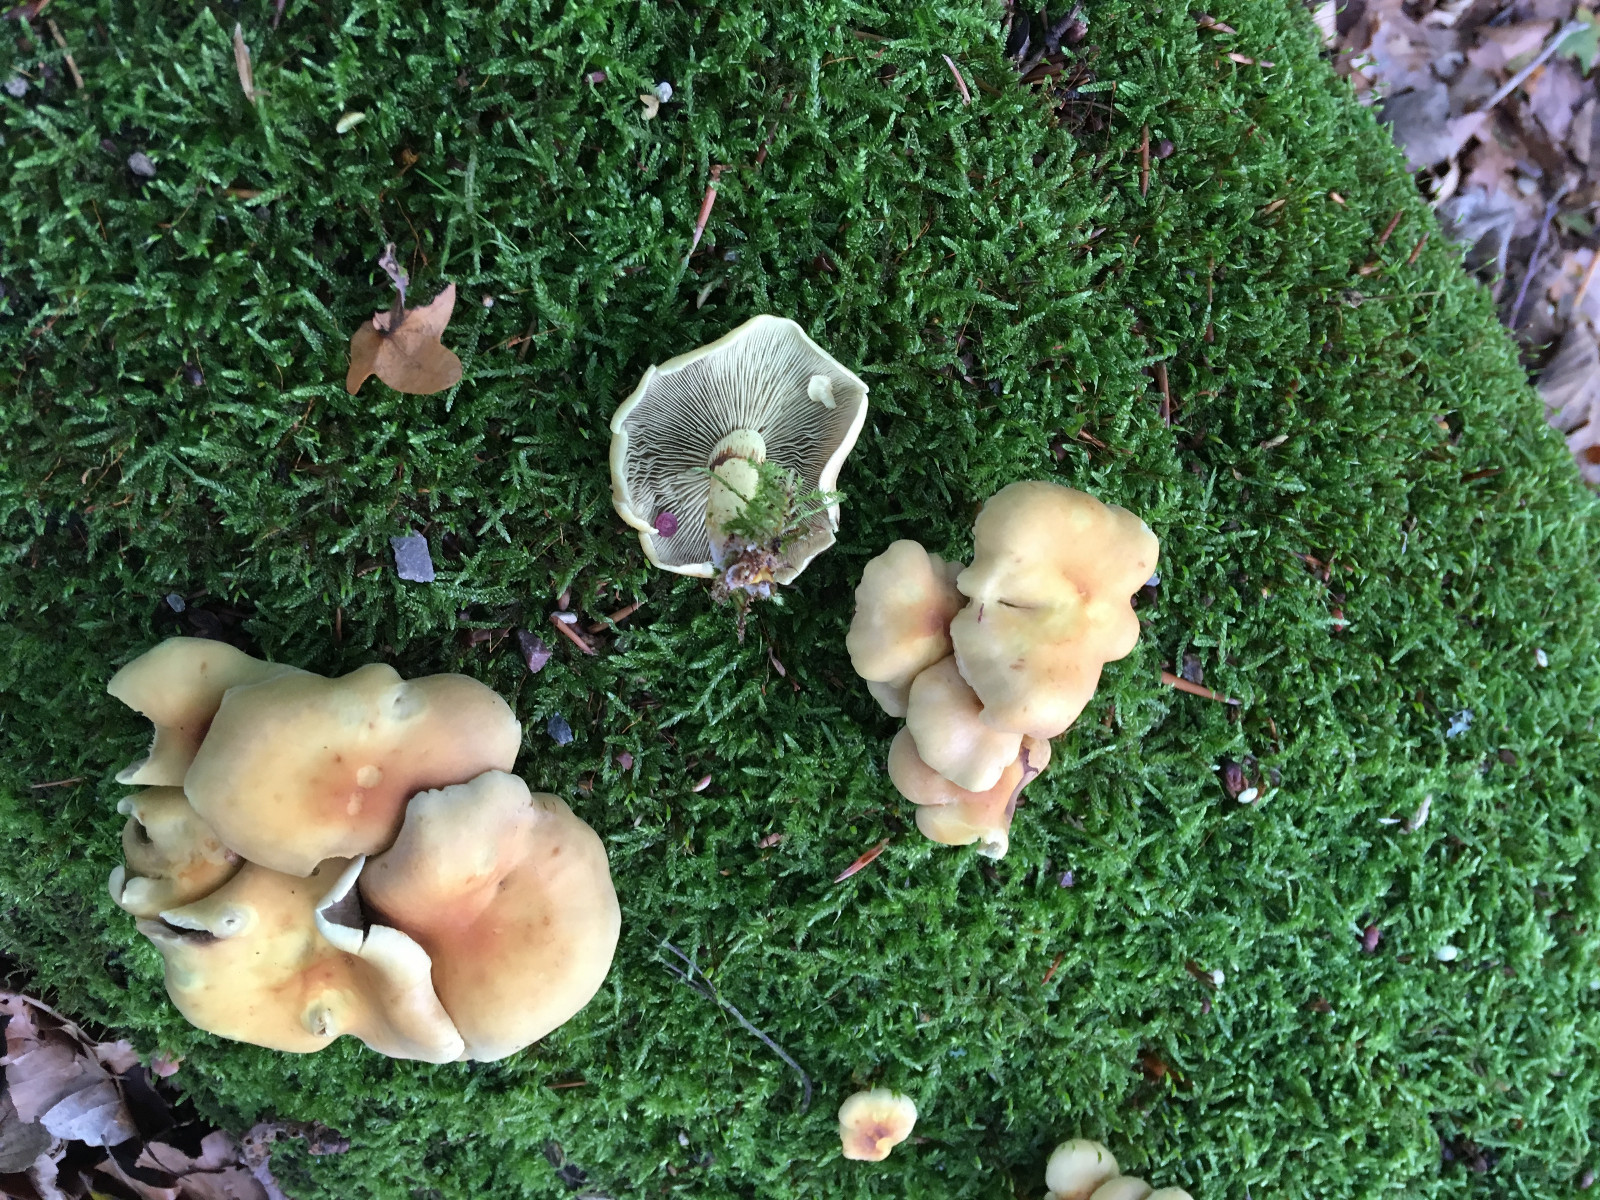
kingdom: Fungi
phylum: Basidiomycota
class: Agaricomycetes
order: Agaricales
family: Strophariaceae
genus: Hypholoma
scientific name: Hypholoma fasciculare
